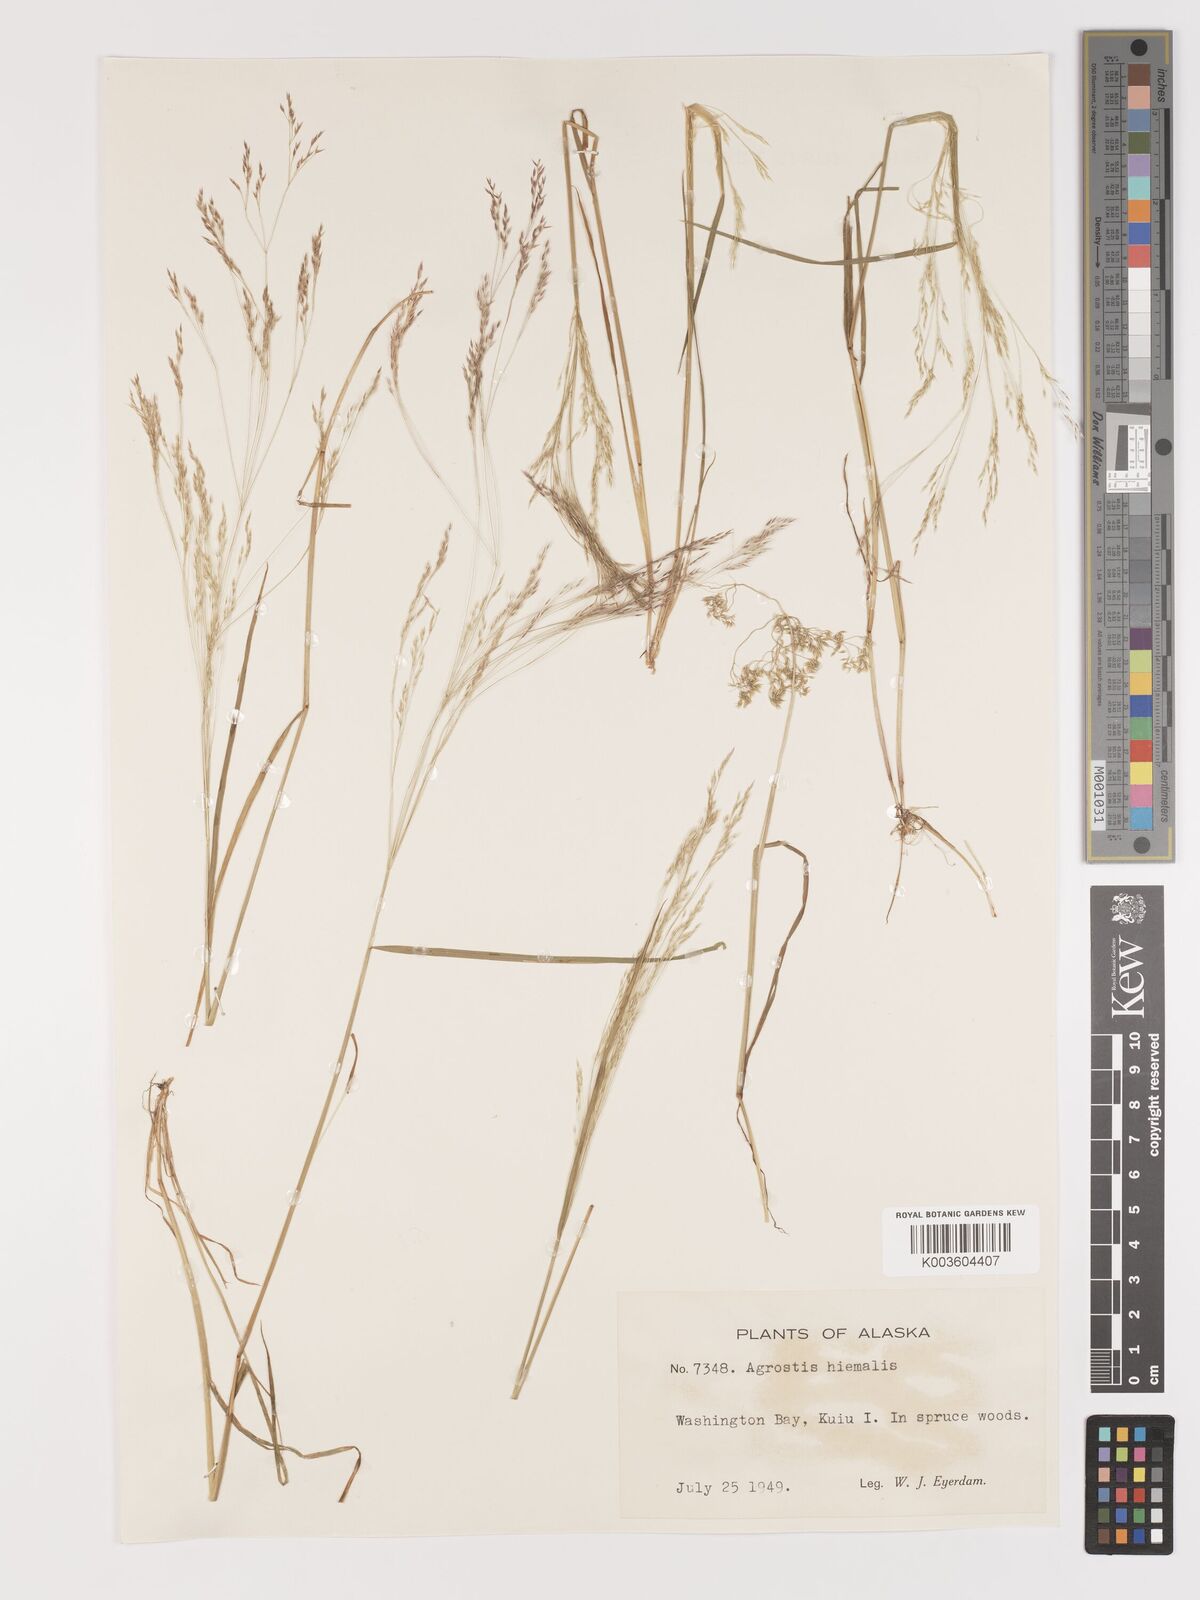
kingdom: Plantae
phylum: Tracheophyta
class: Liliopsida
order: Poales
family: Poaceae
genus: Agrostis
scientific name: Agrostis hyemalis
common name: Small bent
